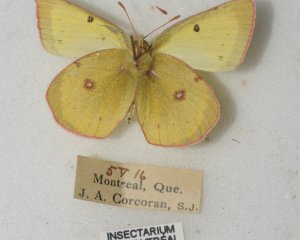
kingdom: Animalia
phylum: Arthropoda
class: Insecta
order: Lepidoptera
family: Pieridae
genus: Colias
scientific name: Colias philodice
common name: Clouded Sulphur
